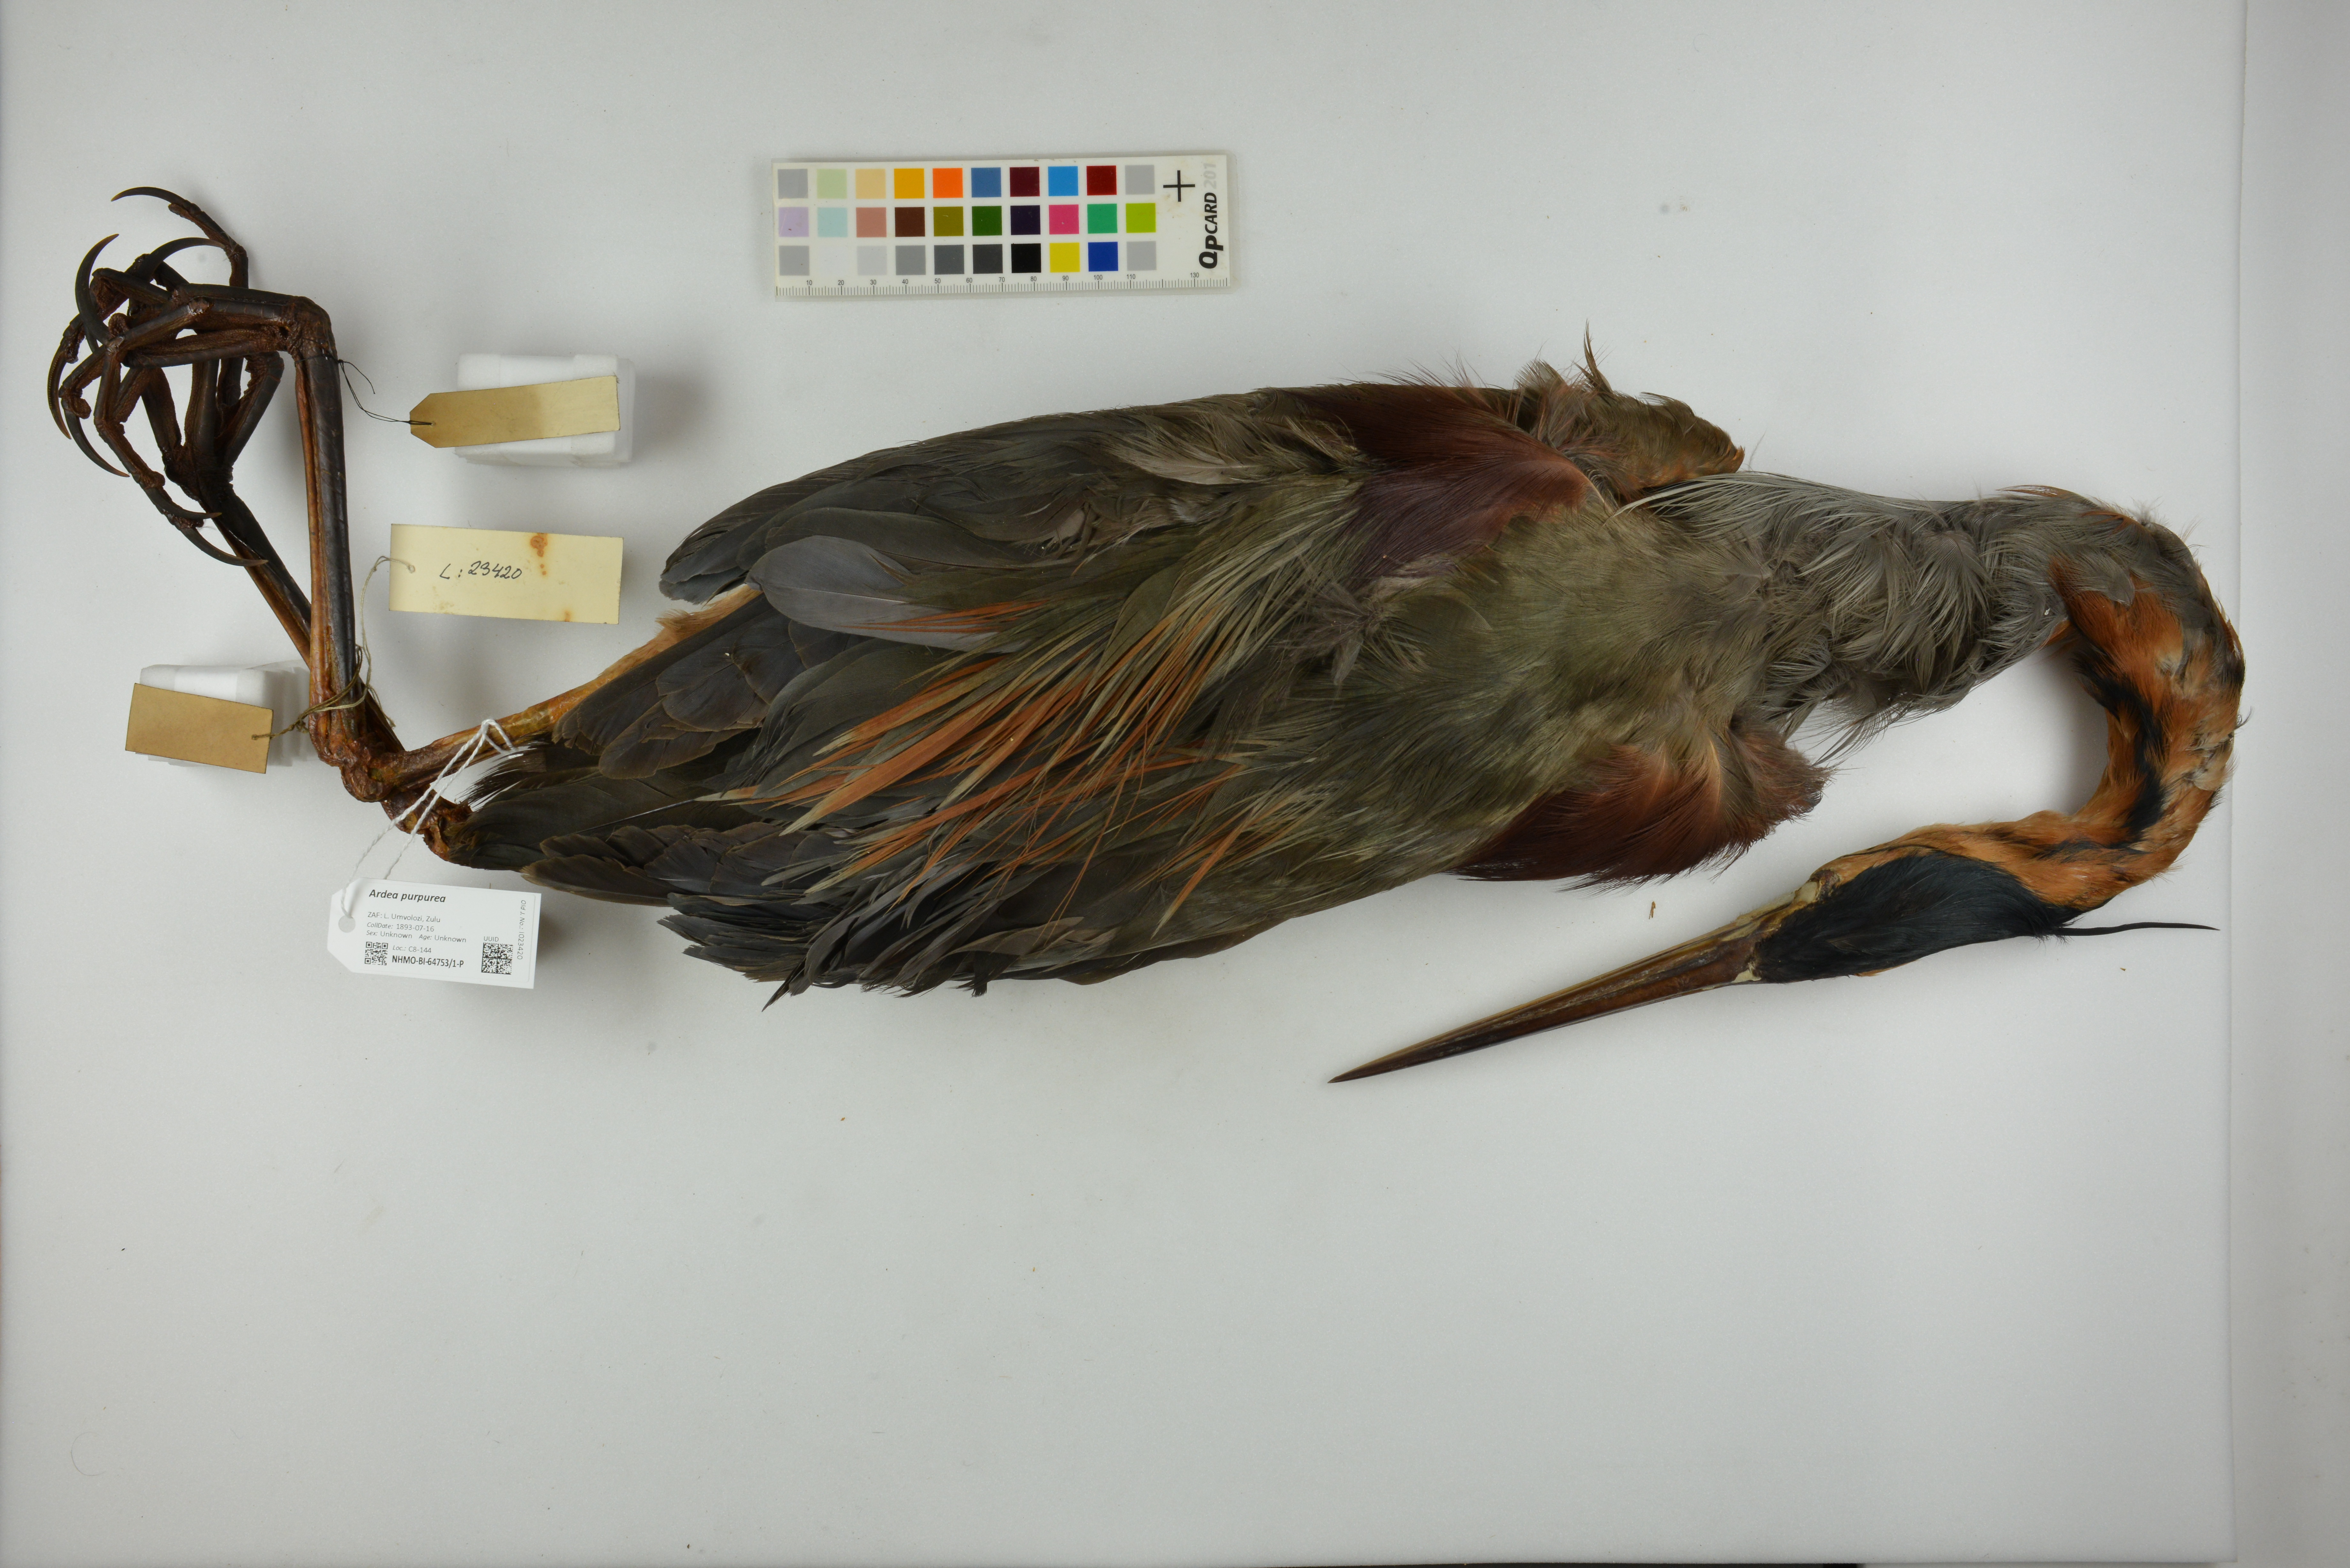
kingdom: Animalia
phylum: Chordata
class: Aves
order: Pelecaniformes
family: Ardeidae
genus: Ardea
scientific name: Ardea purpurea
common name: Purple heron
